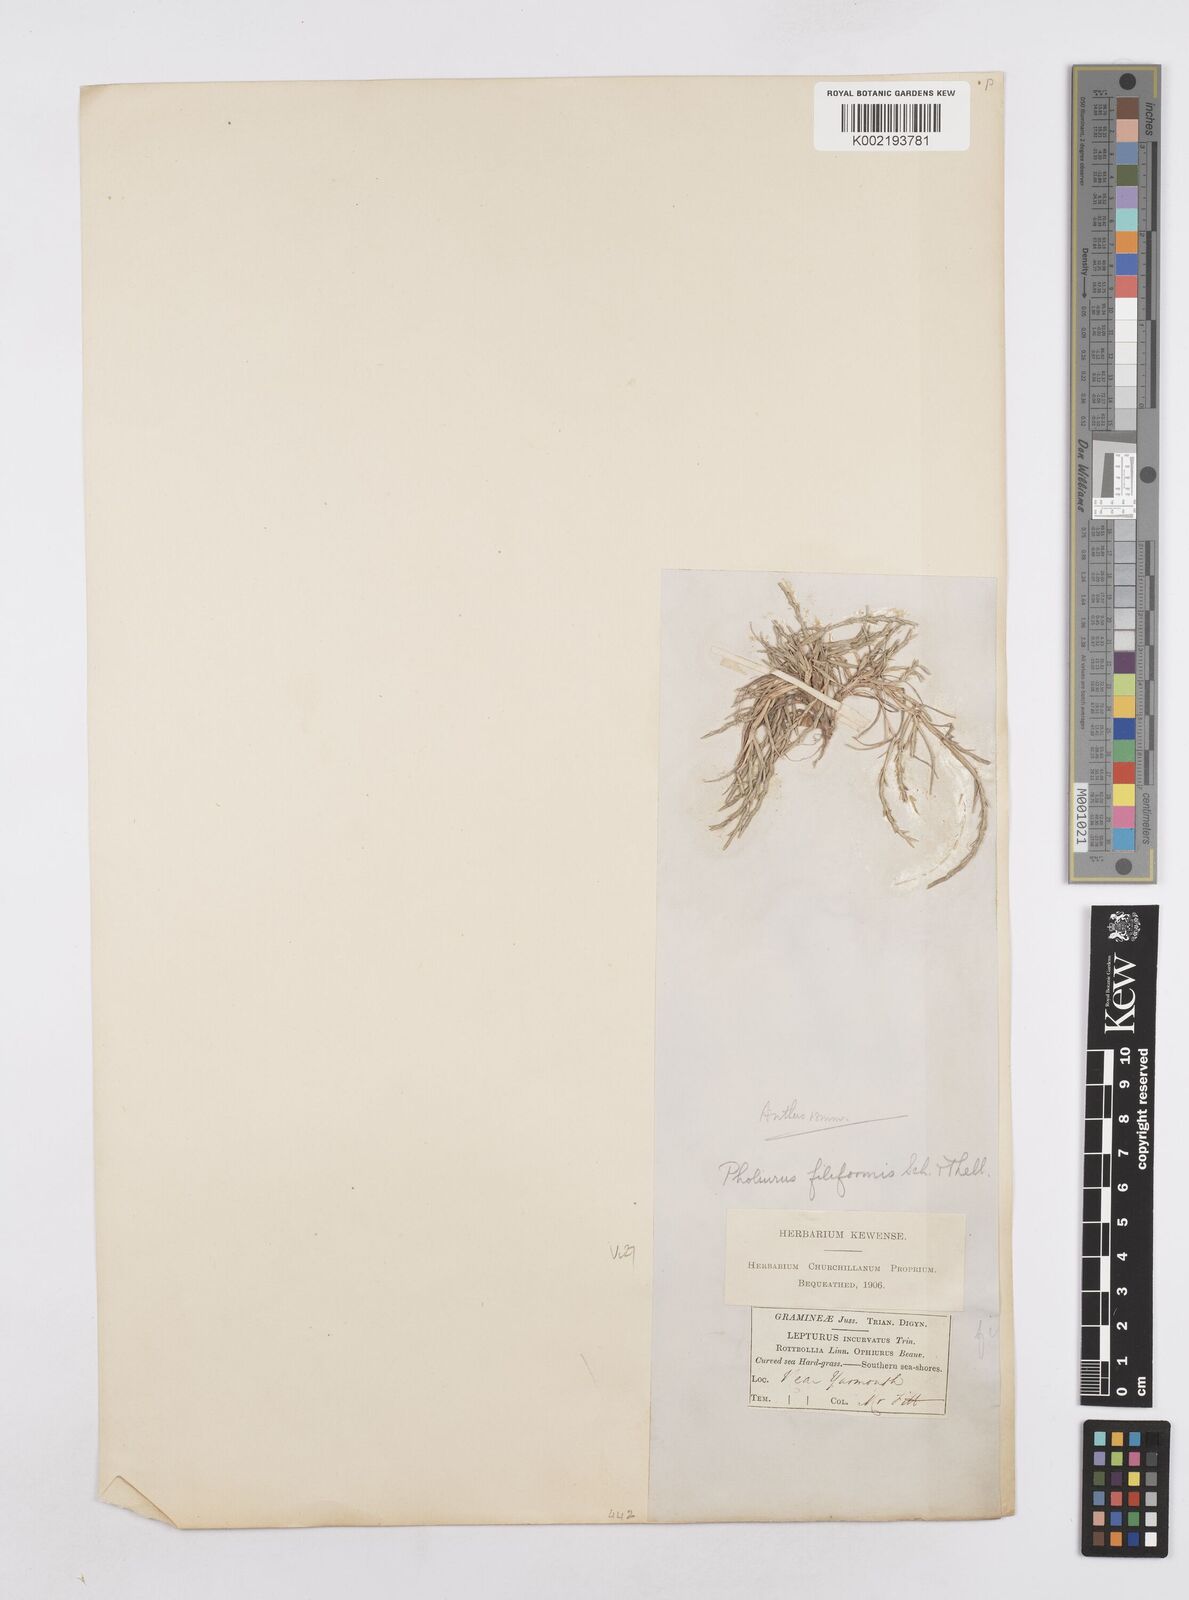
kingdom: Plantae
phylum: Tracheophyta
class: Liliopsida
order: Poales
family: Poaceae
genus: Parapholis
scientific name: Parapholis strigosa
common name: Hard-grass
